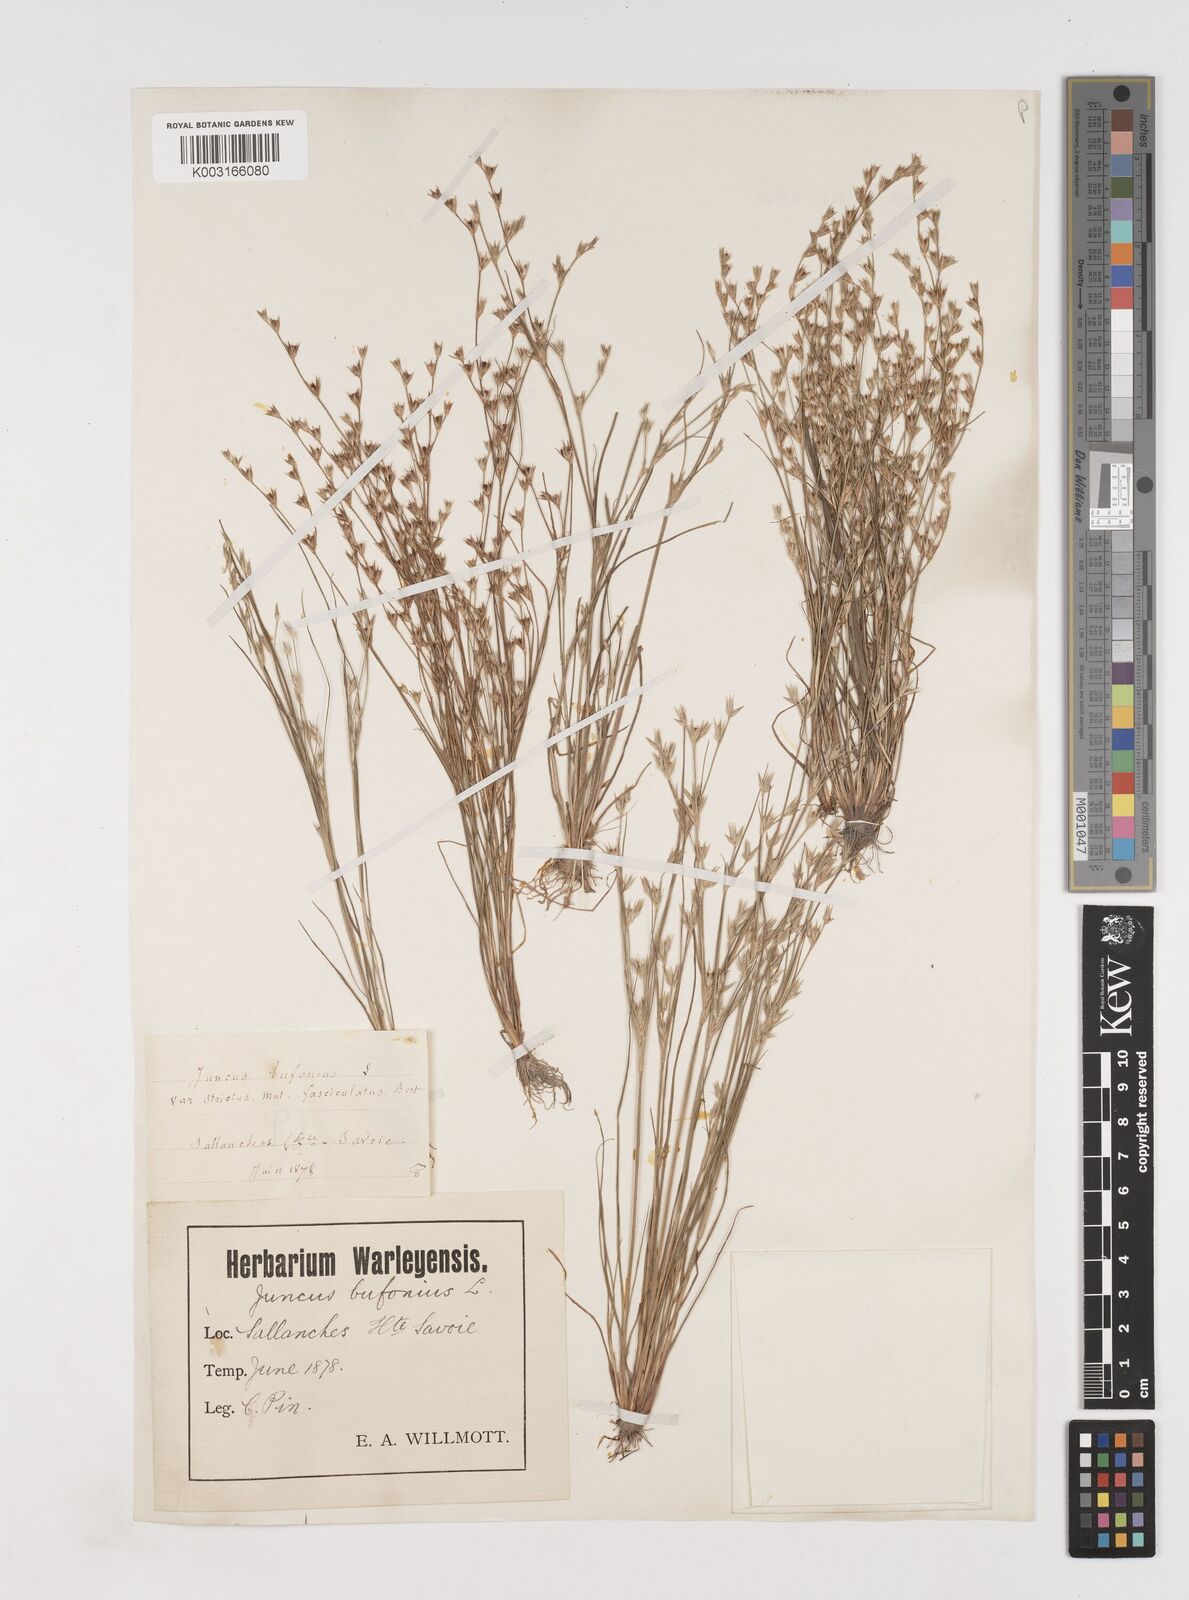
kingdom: Plantae
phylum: Tracheophyta
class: Liliopsida
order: Poales
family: Juncaceae
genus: Juncus
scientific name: Juncus hybridus
